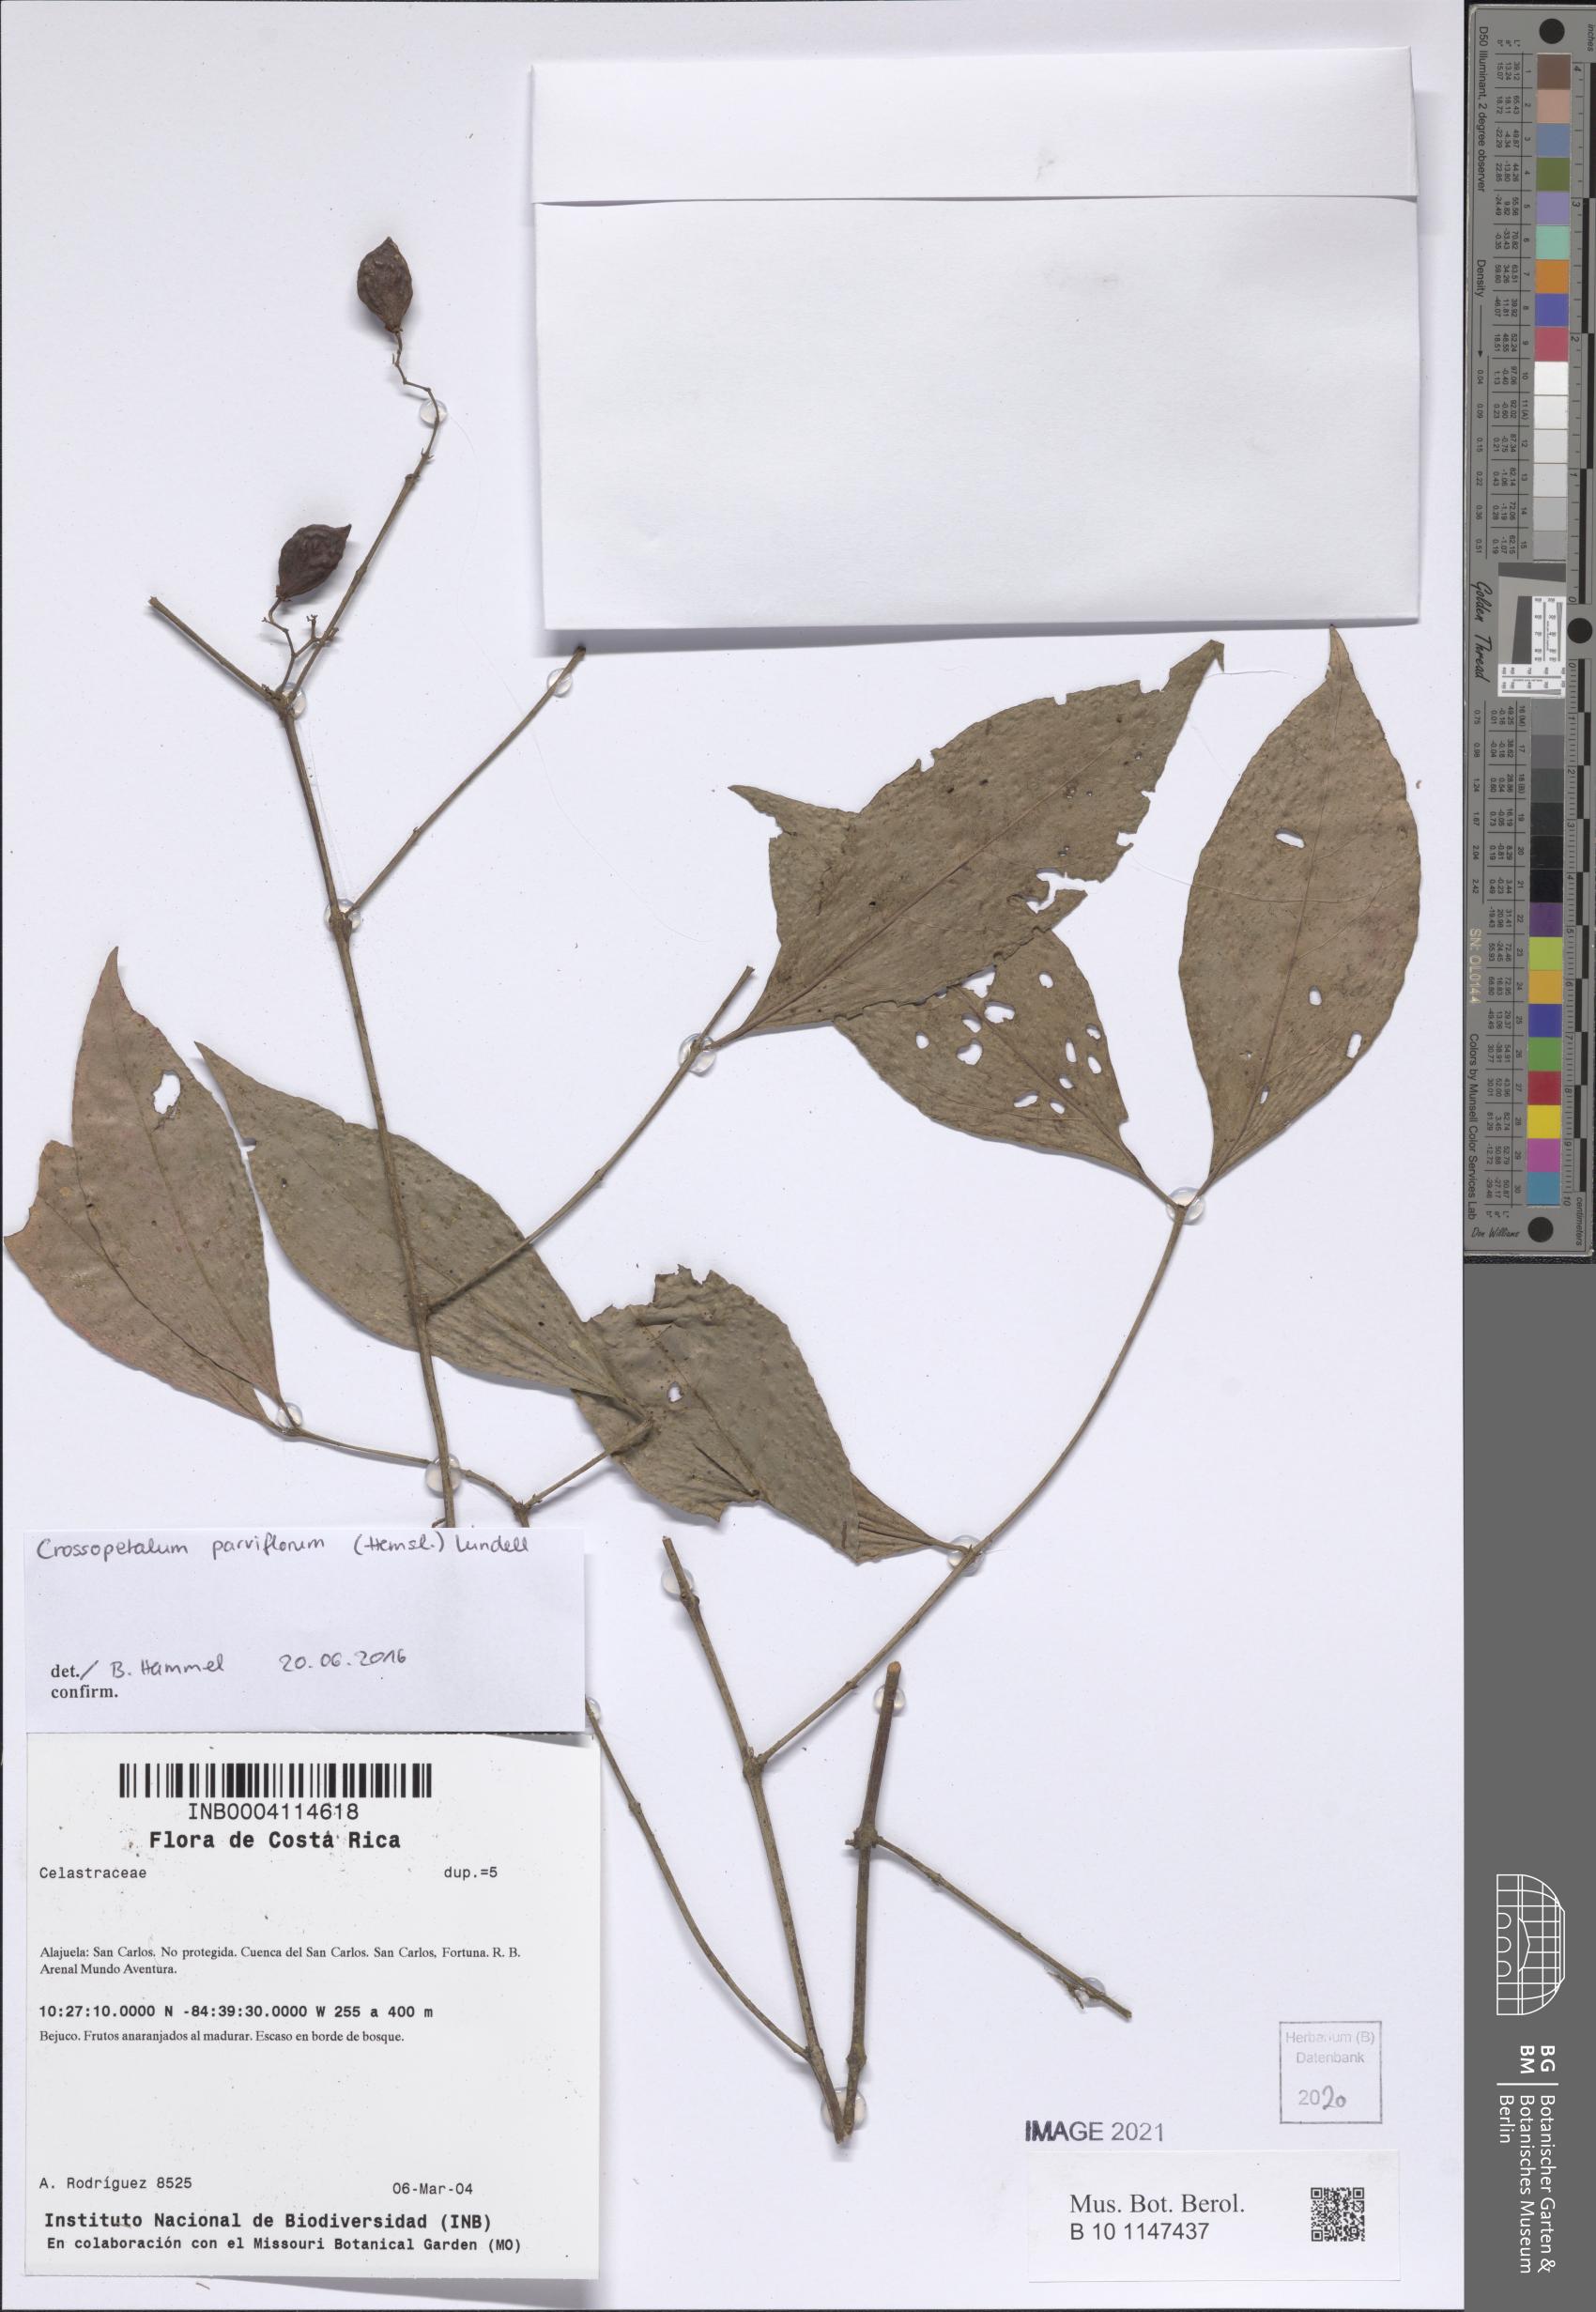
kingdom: Plantae
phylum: Tracheophyta
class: Magnoliopsida
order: Celastrales
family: Celastraceae
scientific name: Celastraceae
